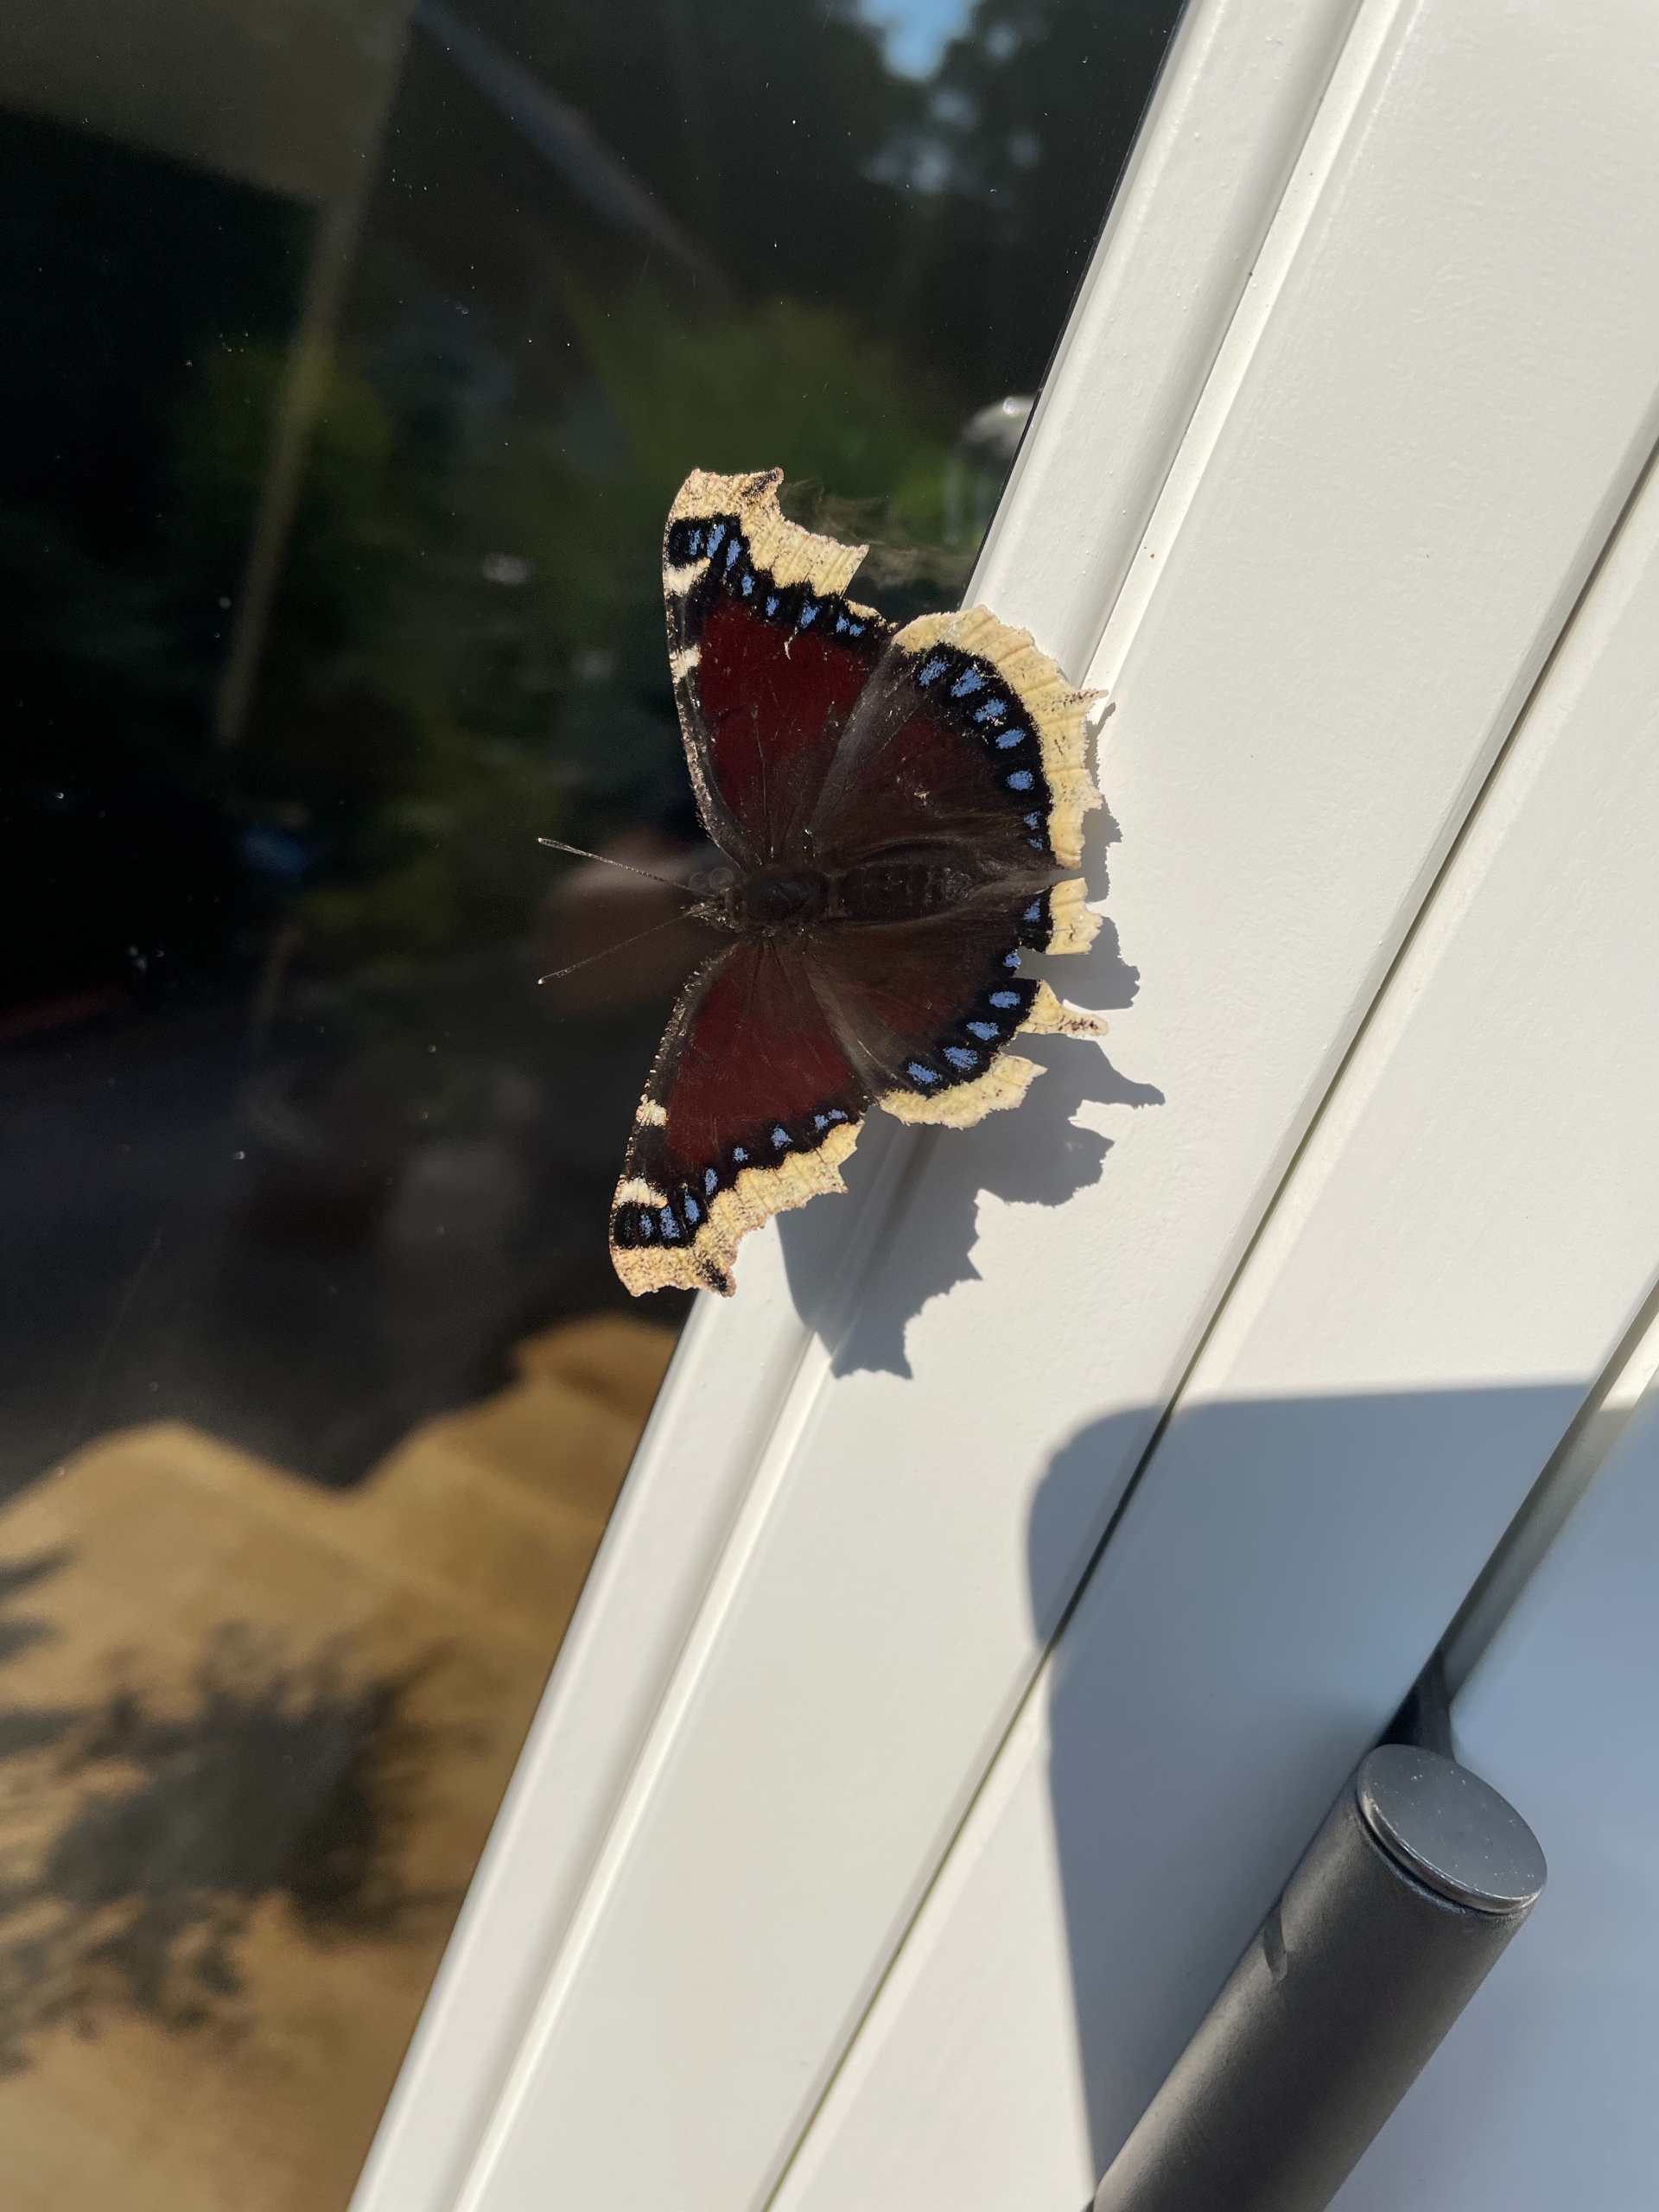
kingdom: Animalia
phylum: Arthropoda
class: Insecta
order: Lepidoptera
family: Nymphalidae
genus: Nymphalis
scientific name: Nymphalis antiopa
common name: Sørgekåbe
